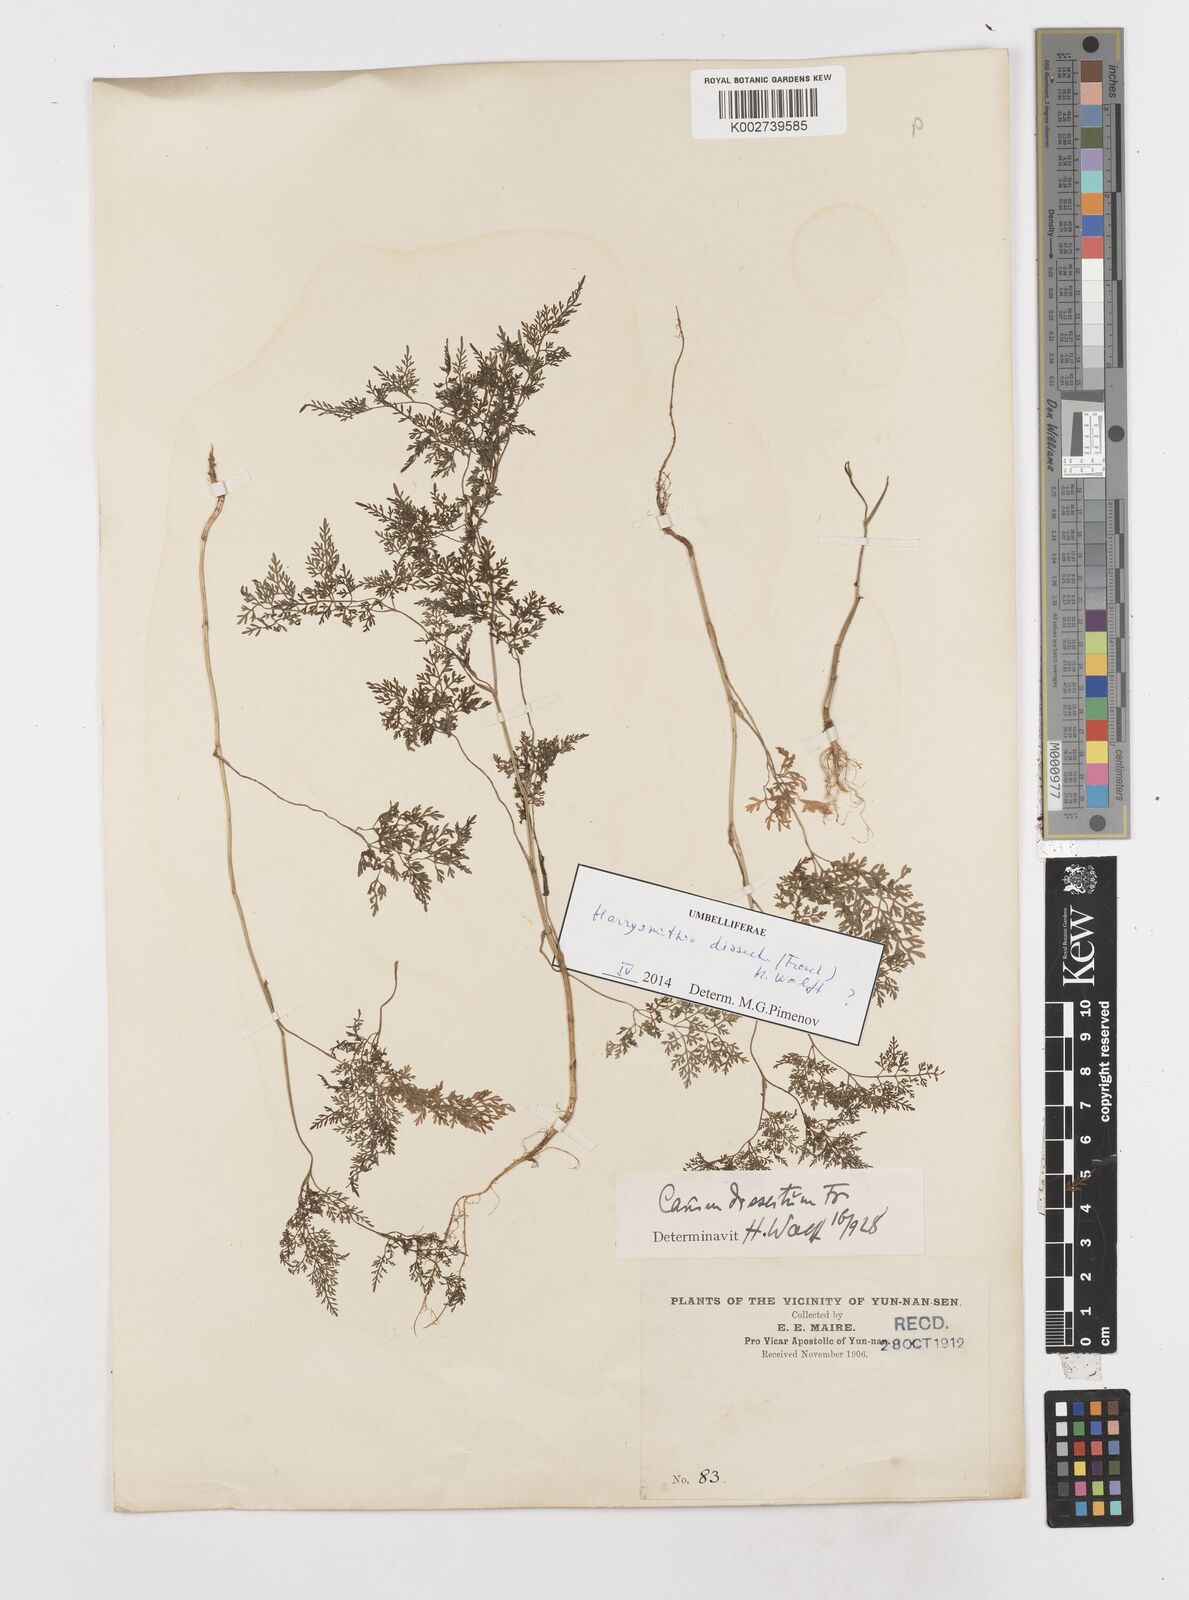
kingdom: Plantae
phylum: Tracheophyta
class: Magnoliopsida
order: Apiales
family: Apiaceae
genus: Oenanthe
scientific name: Oenanthe thomsonii
